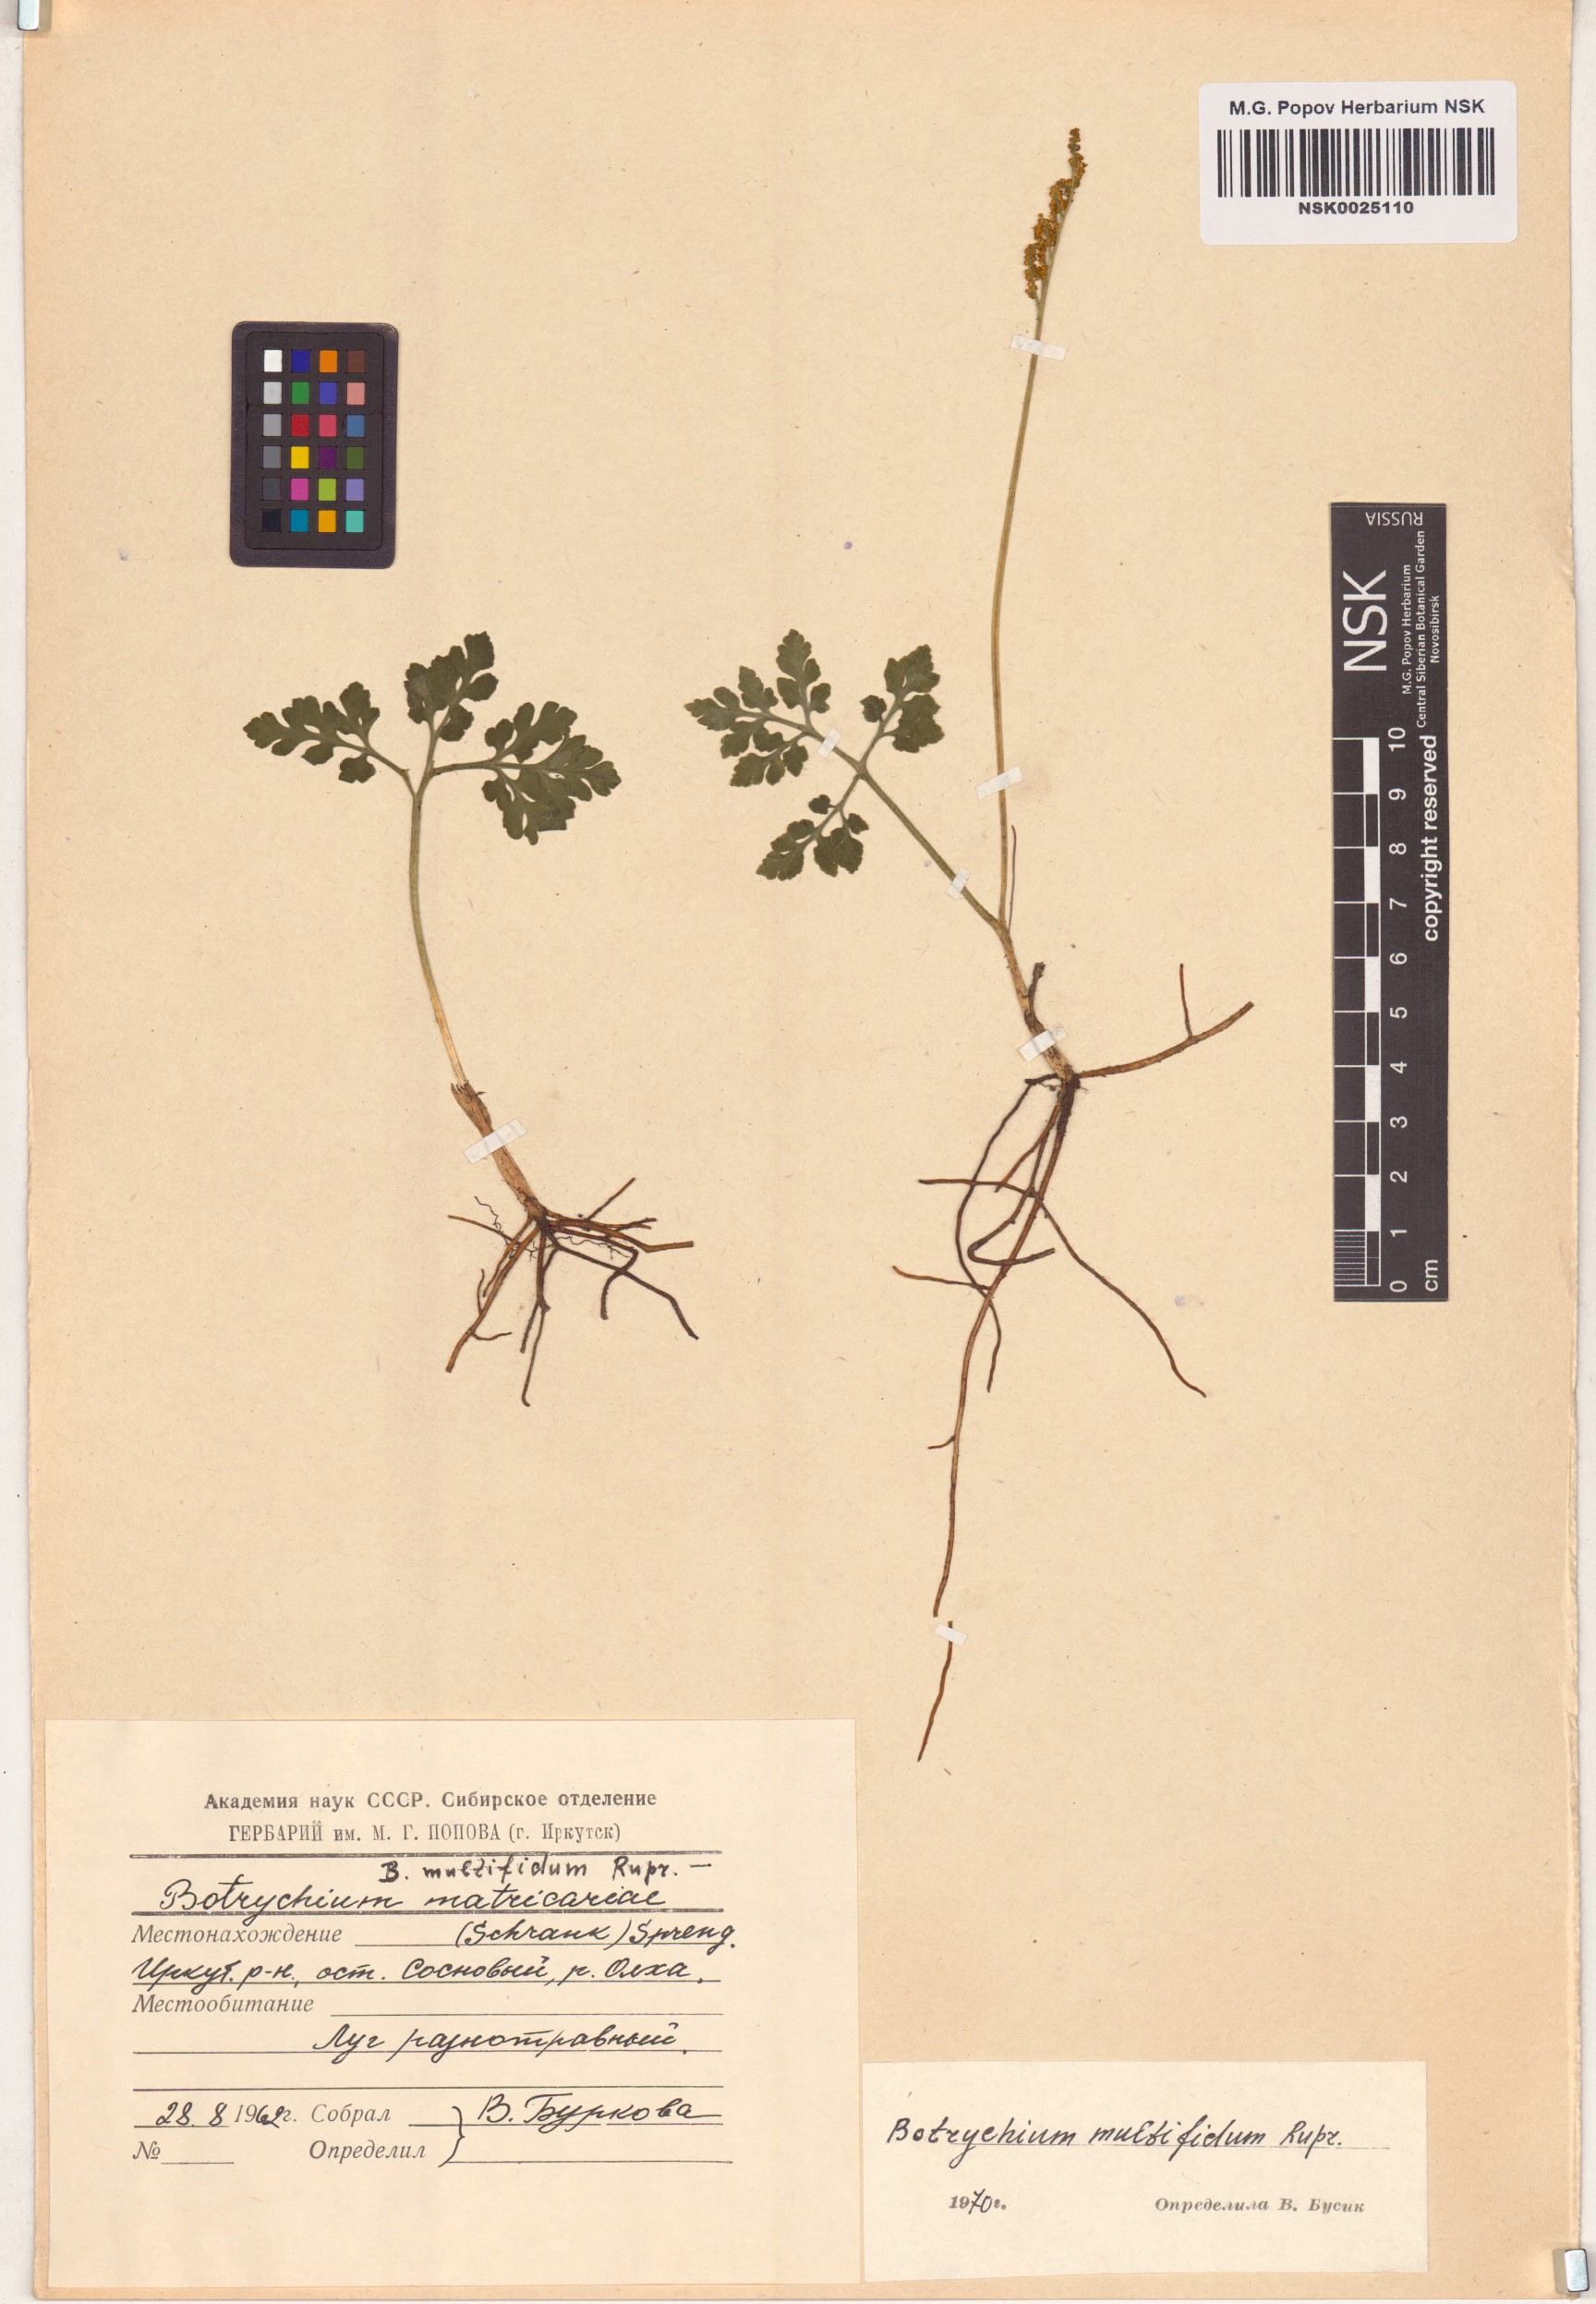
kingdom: Plantae
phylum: Tracheophyta
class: Polypodiopsida
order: Ophioglossales
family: Ophioglossaceae
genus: Sceptridium
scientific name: Sceptridium multifidum
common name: Leathery grape fern
